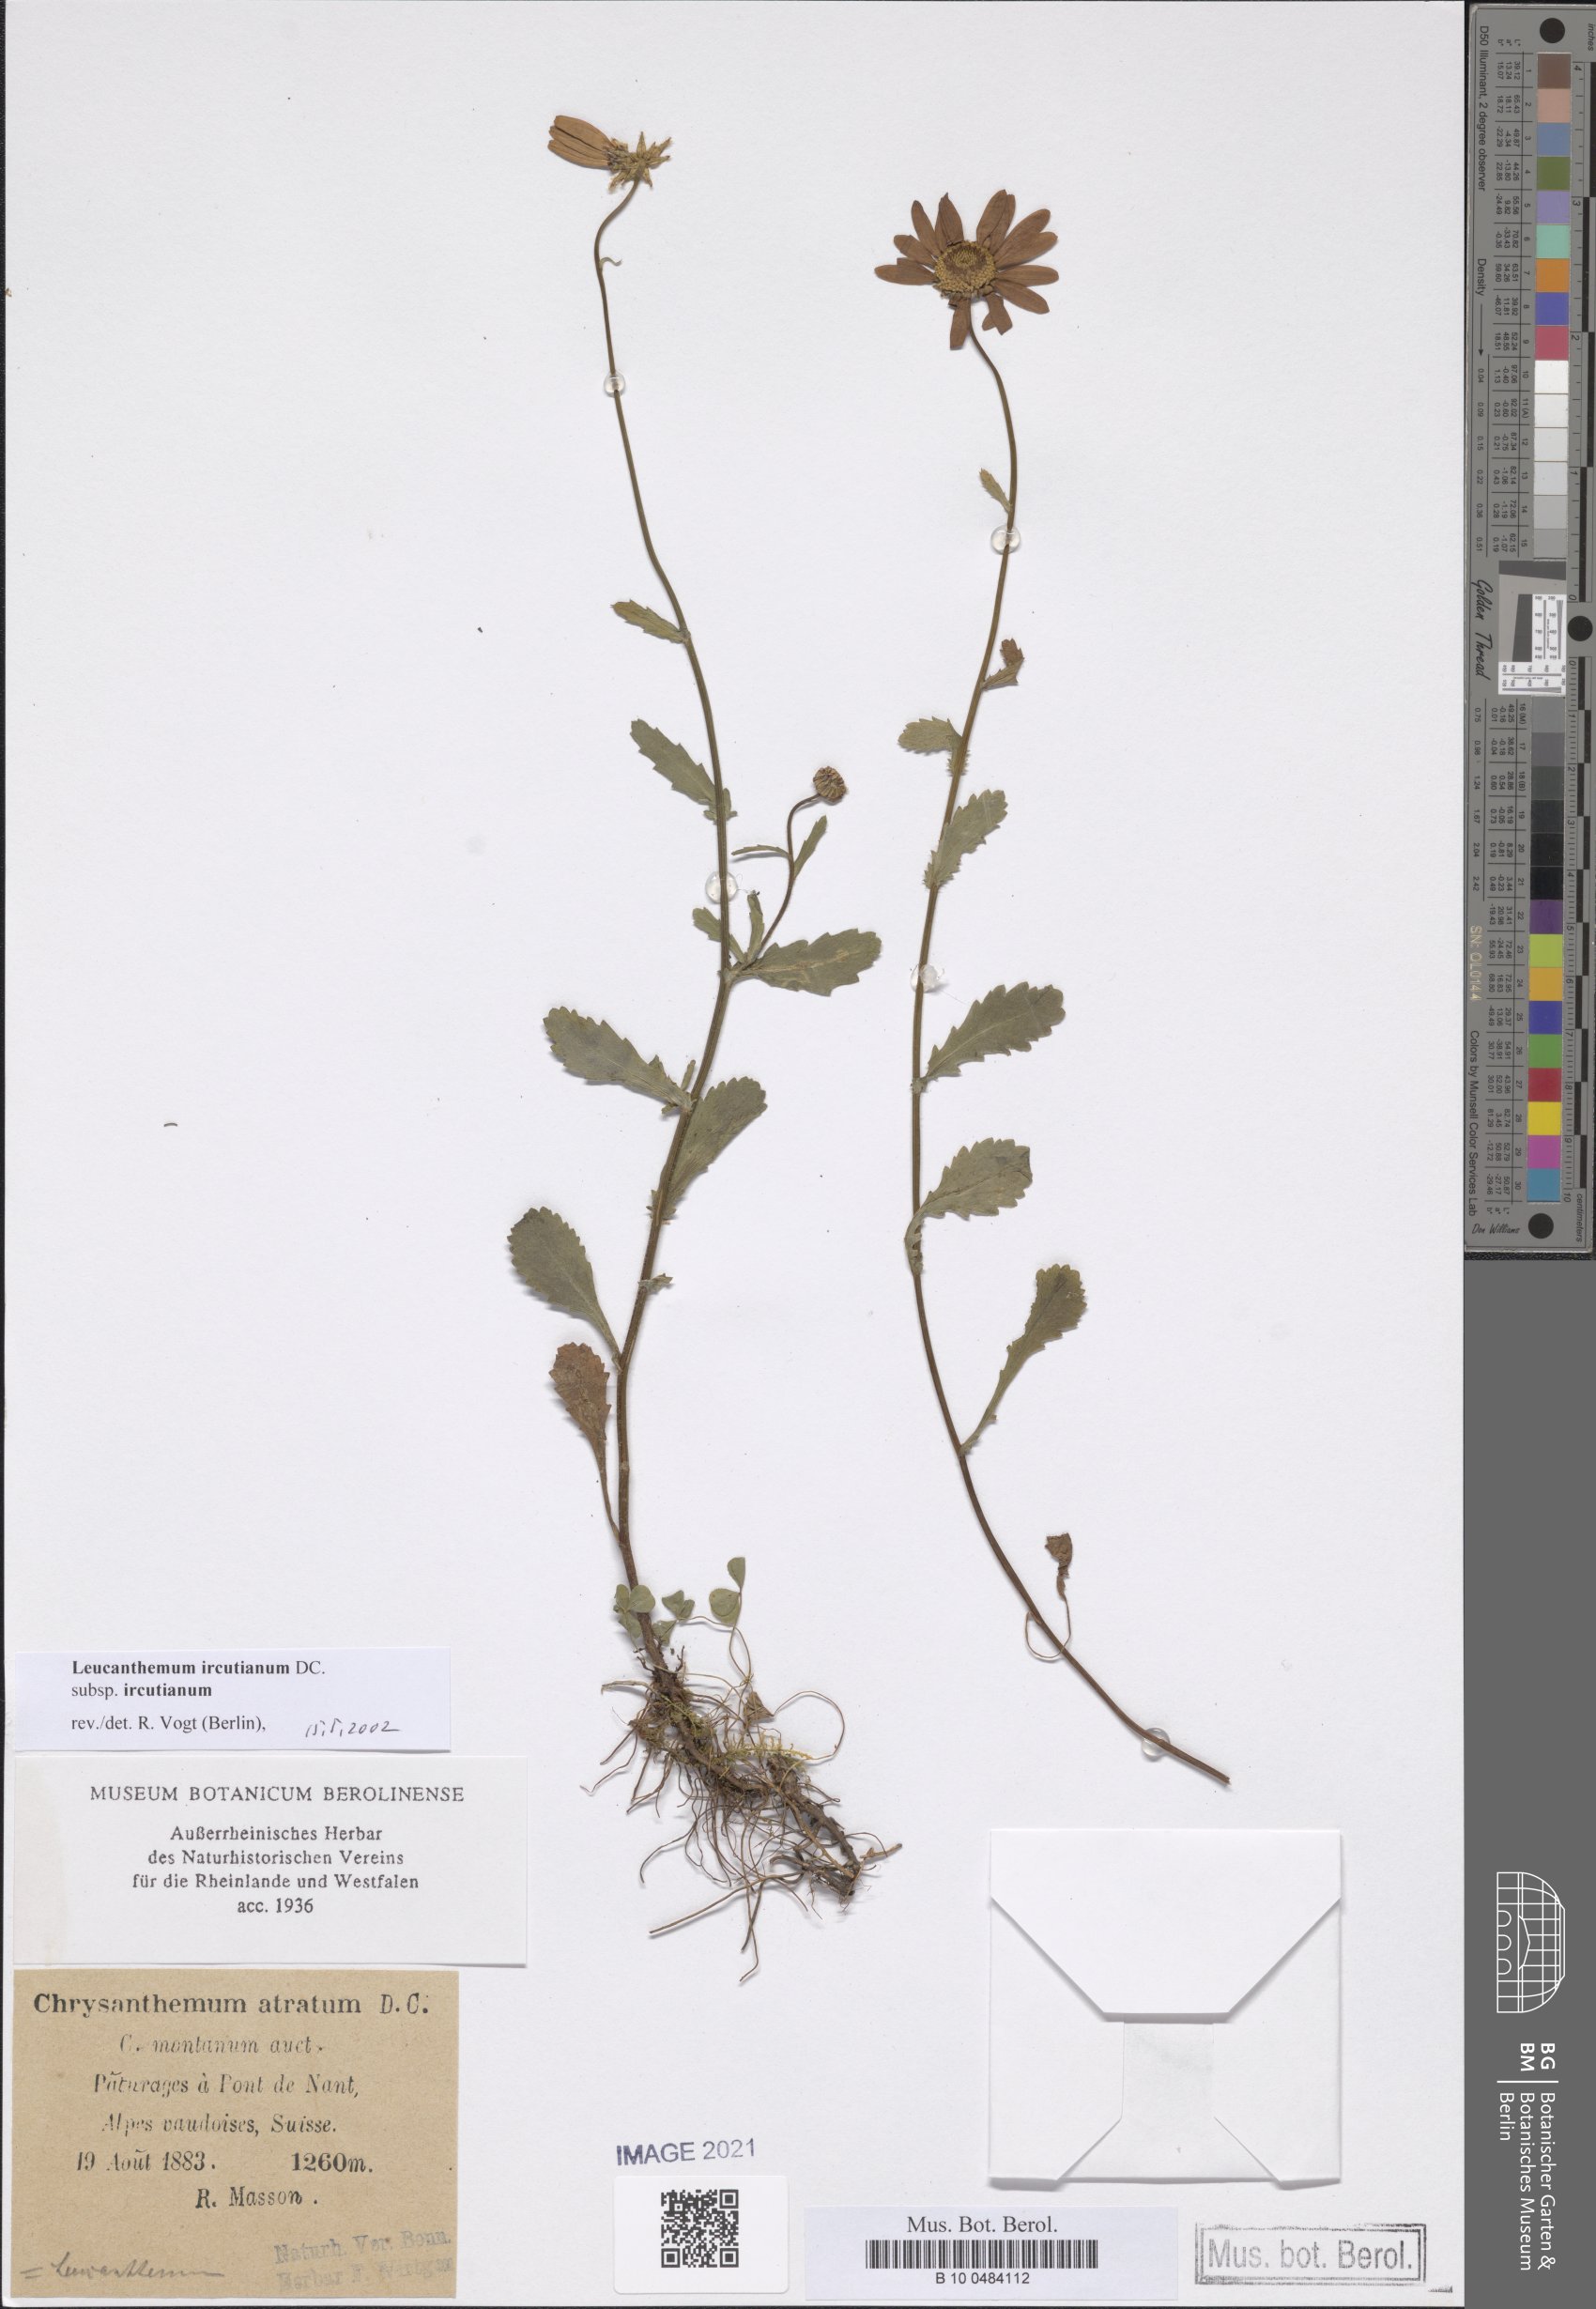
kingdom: Plantae
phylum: Tracheophyta
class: Magnoliopsida
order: Asterales
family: Asteraceae
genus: Leucanthemum
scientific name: Leucanthemum ircutianum
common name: Daisy
